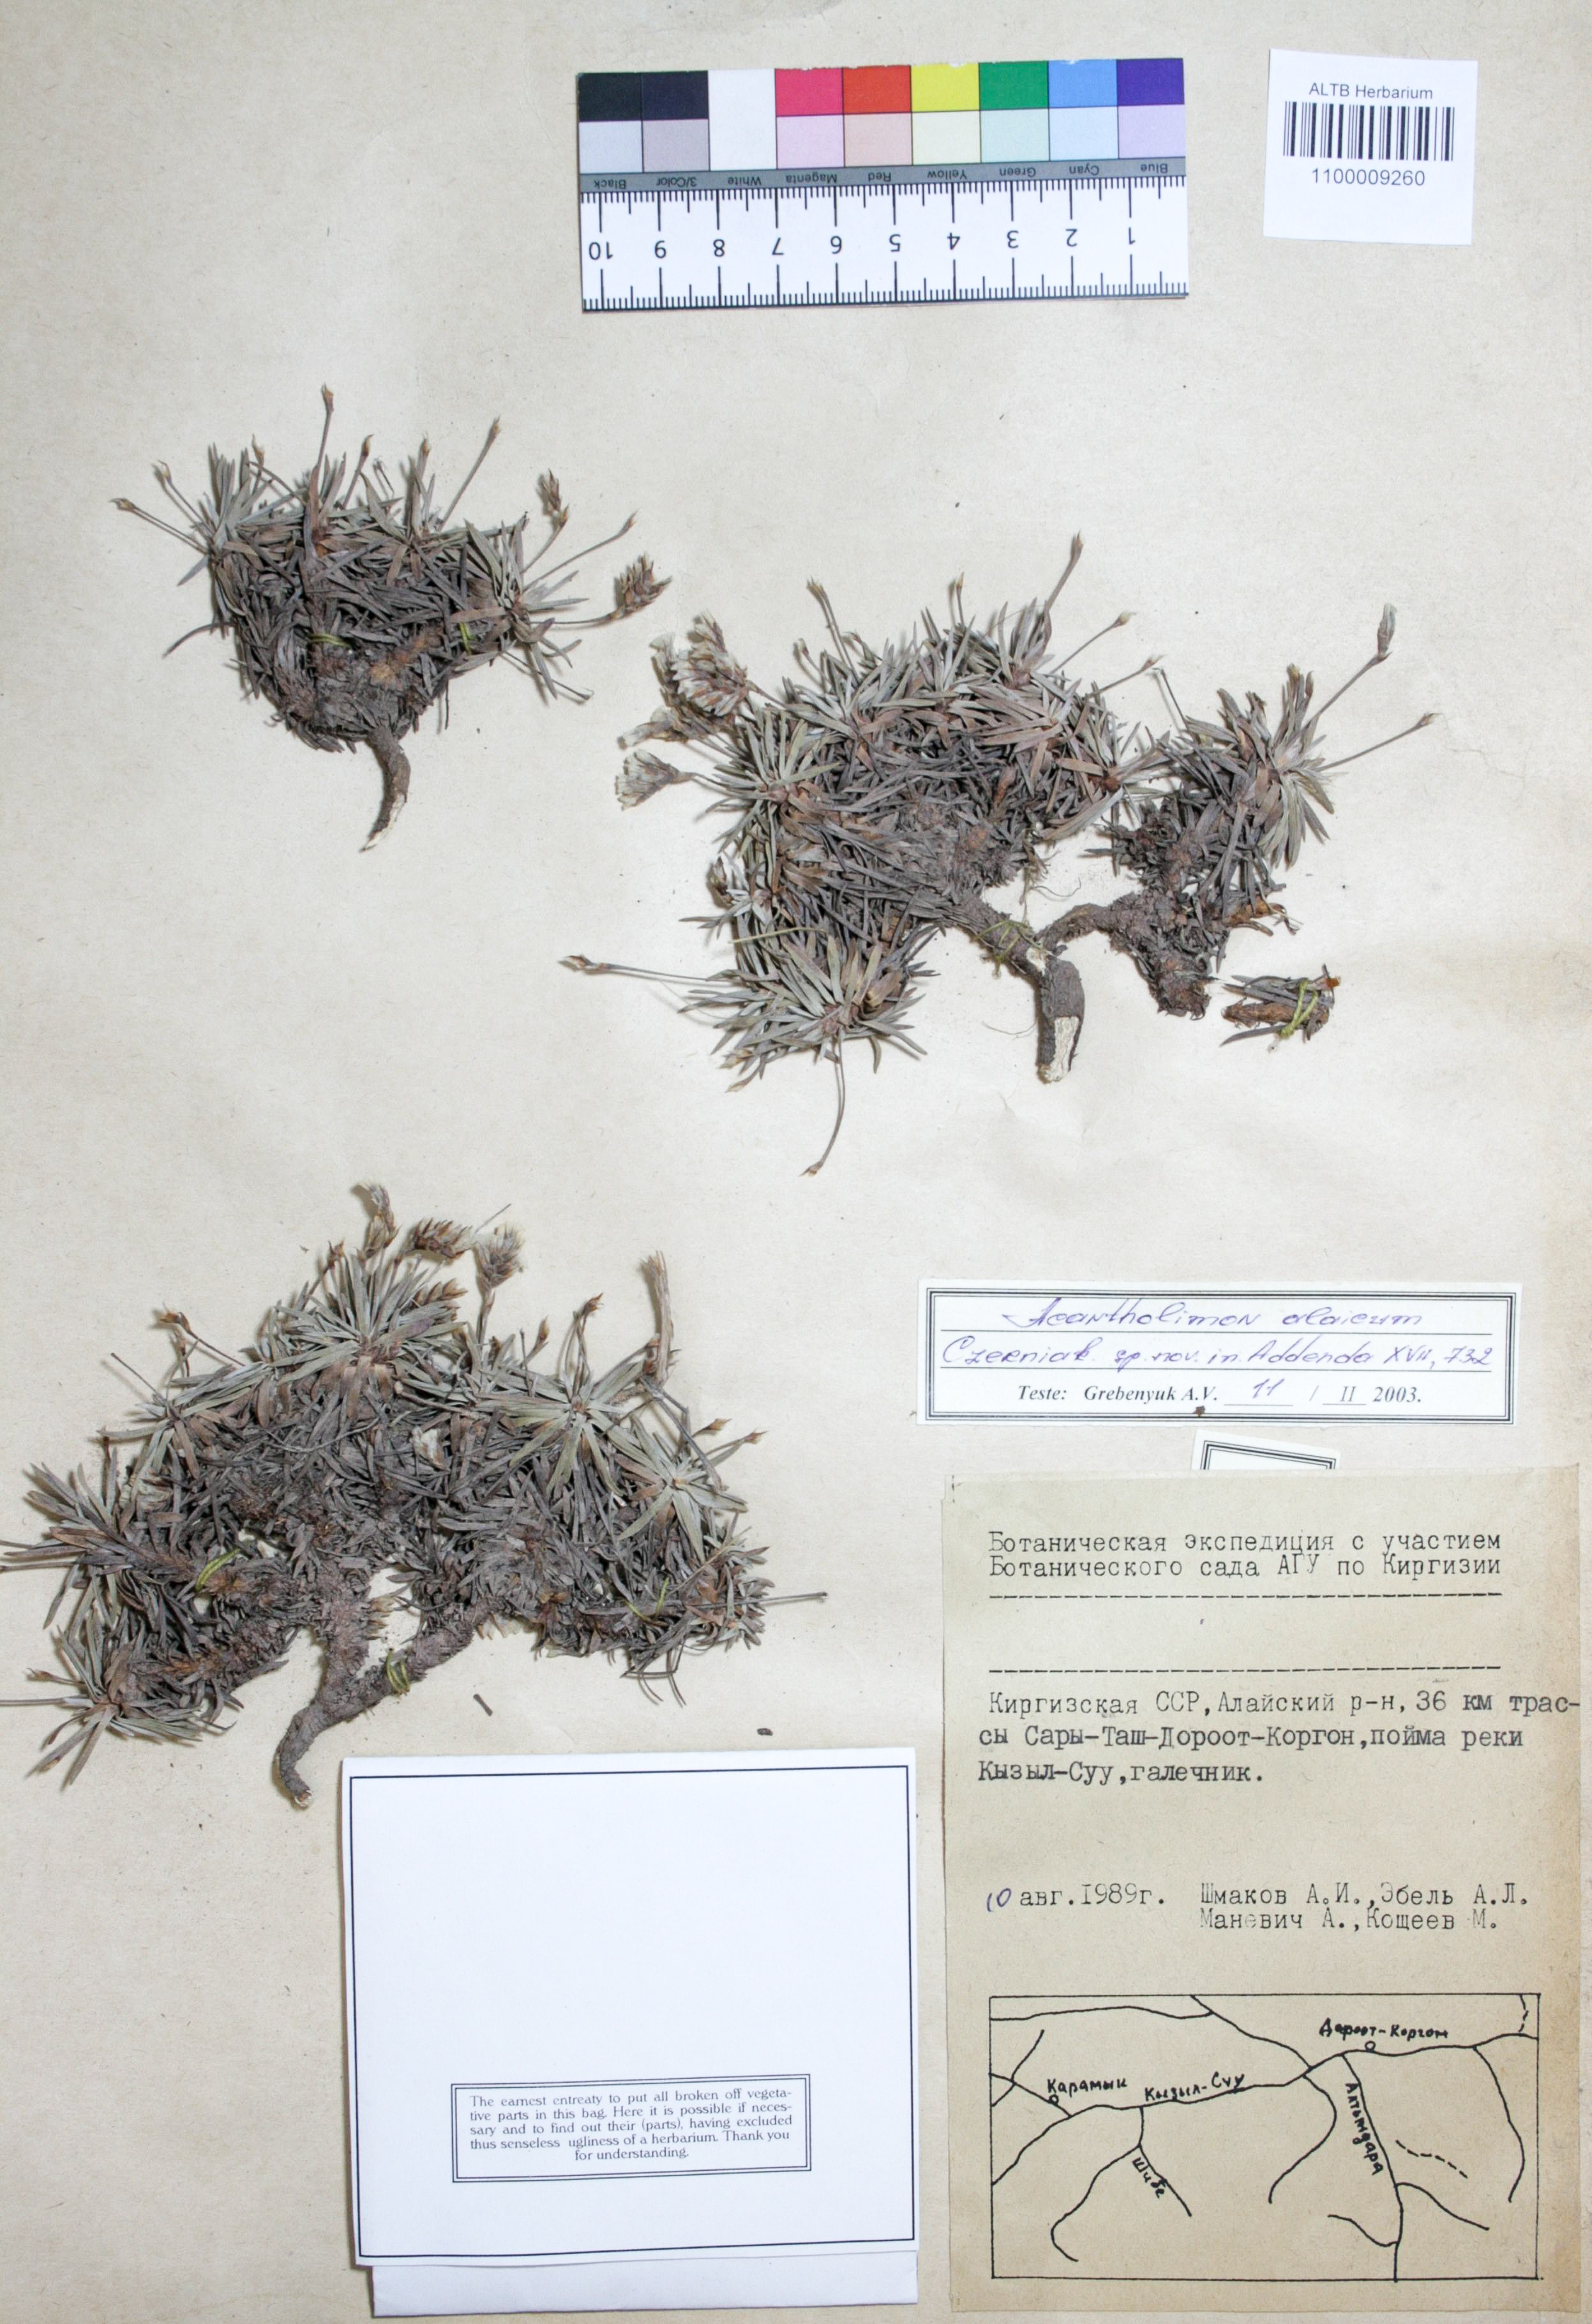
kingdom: Plantae
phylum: Tracheophyta
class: Magnoliopsida
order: Caryophyllales
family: Plumbaginaceae
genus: Acantholimon
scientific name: Acantholimon alaicum
